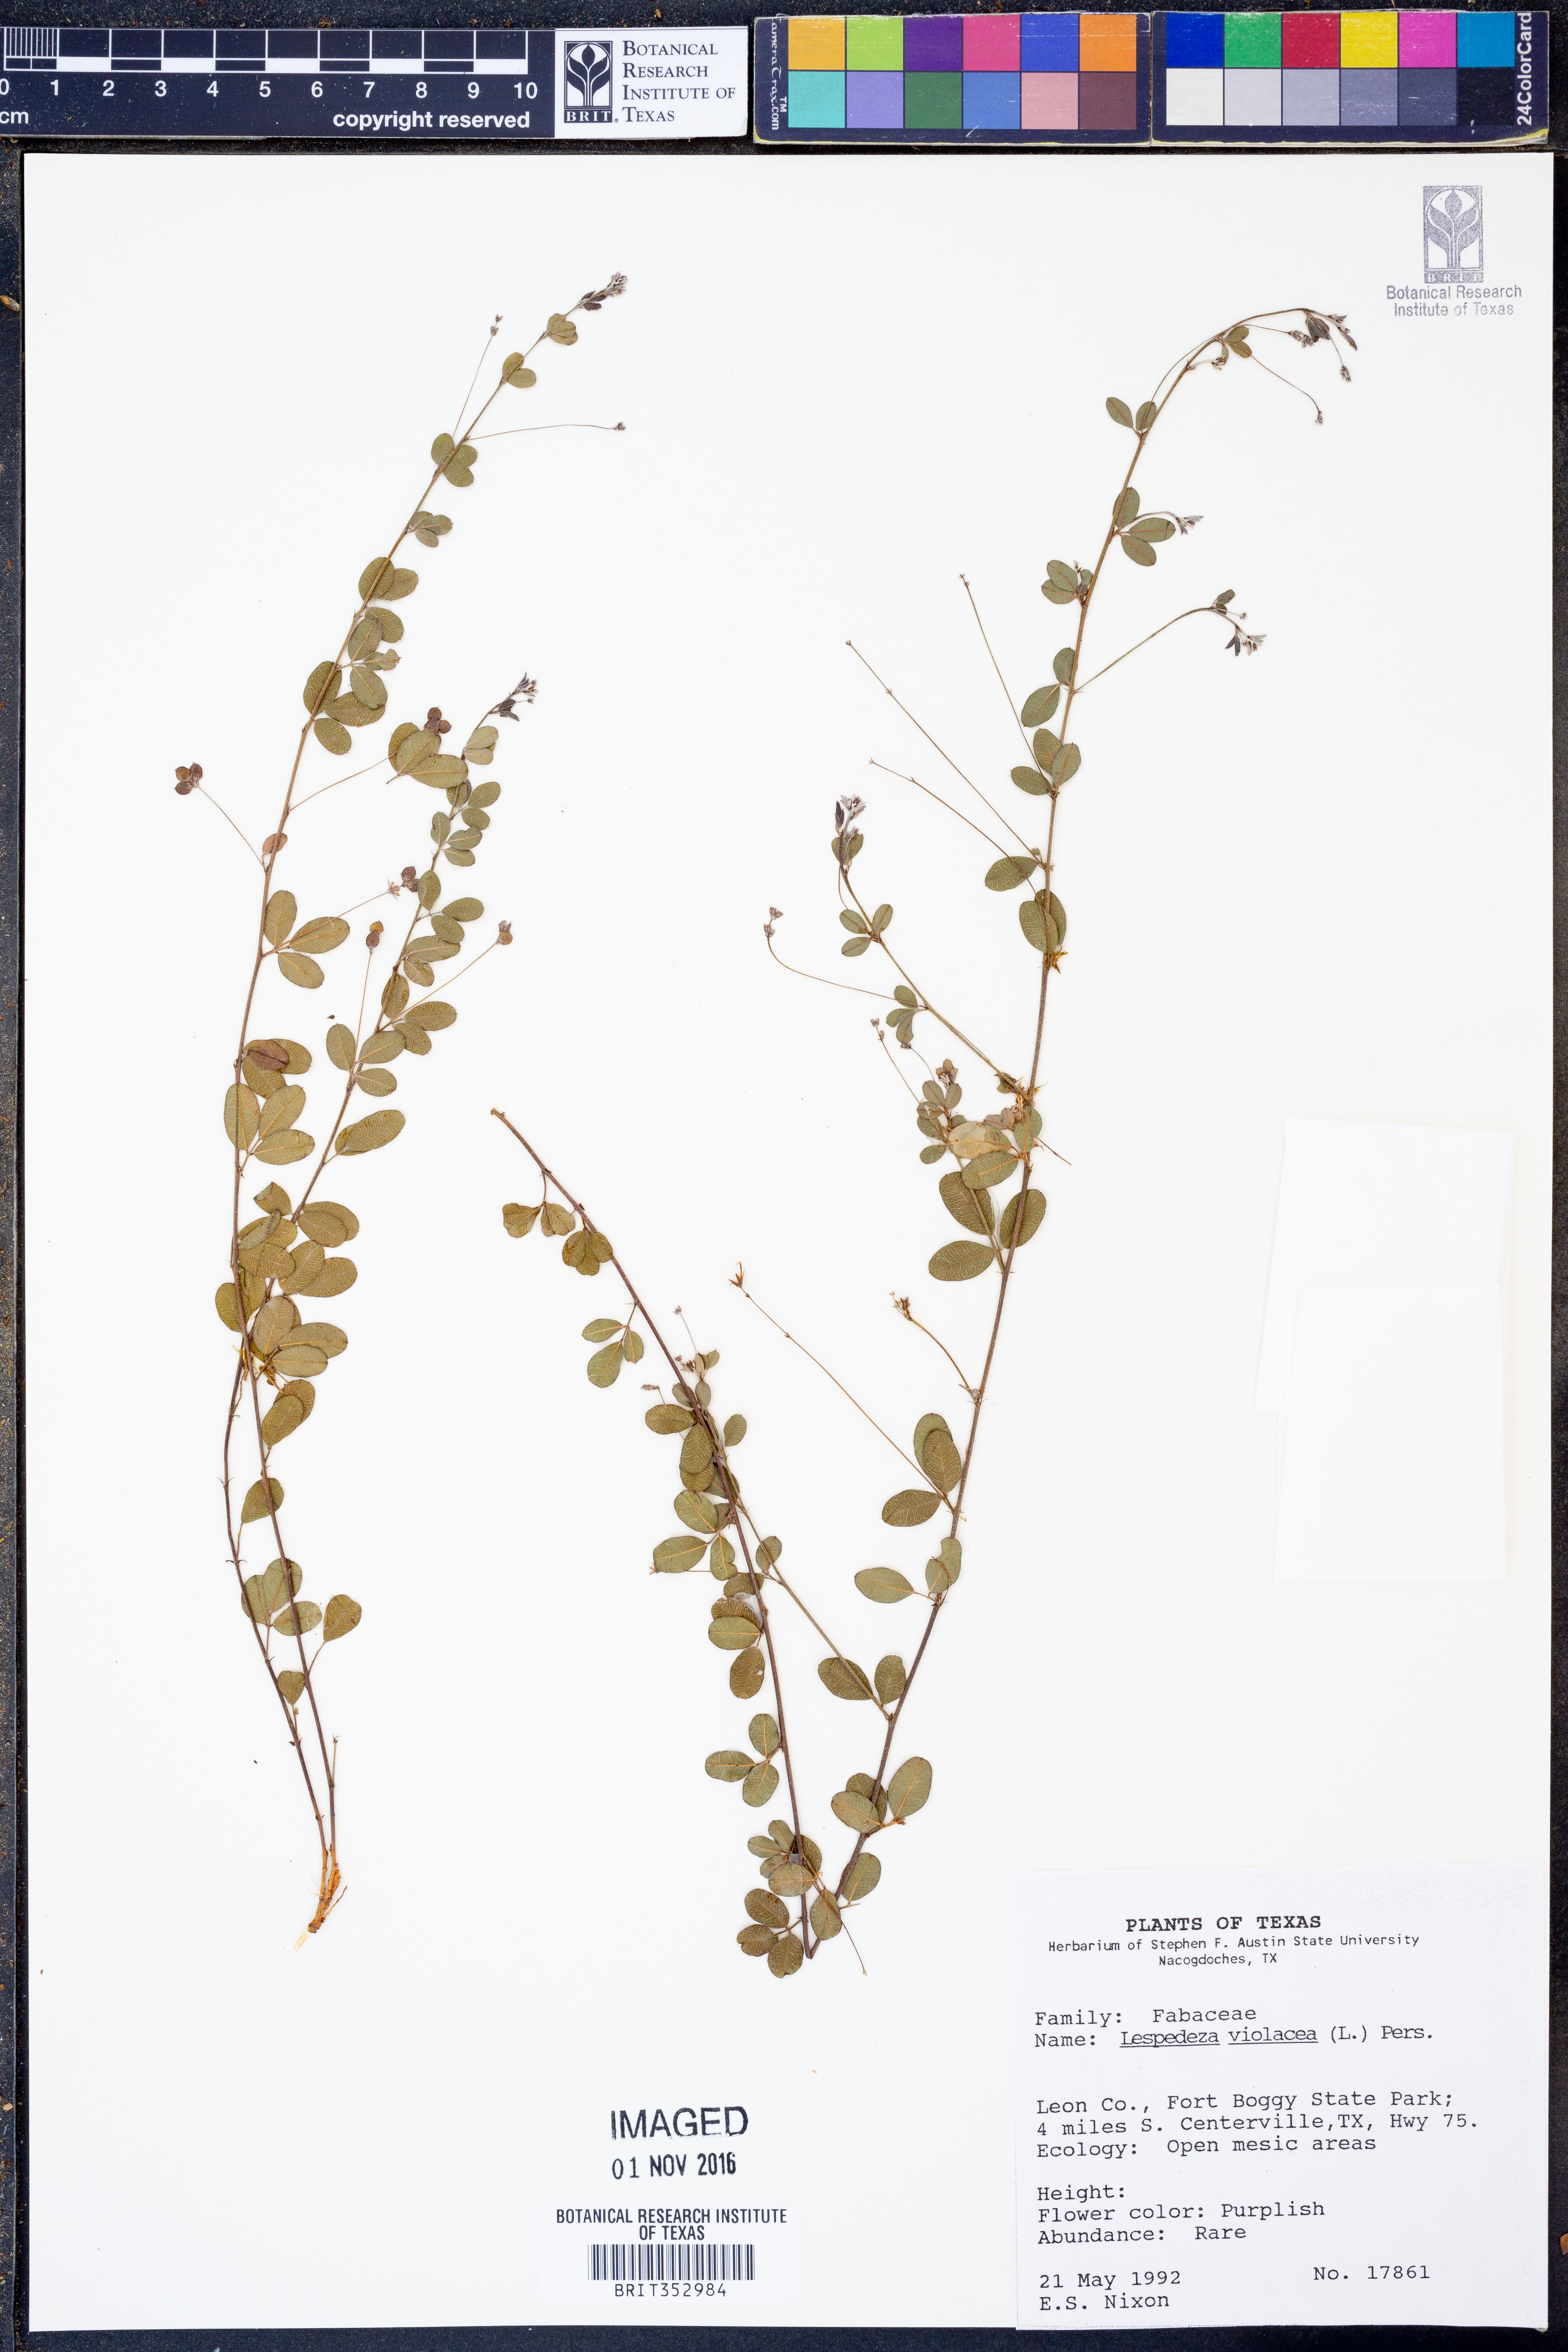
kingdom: Plantae
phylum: Tracheophyta
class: Magnoliopsida
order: Fabales
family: Fabaceae
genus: Lespedeza
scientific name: Lespedeza violacea
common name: Wand bush-clover
